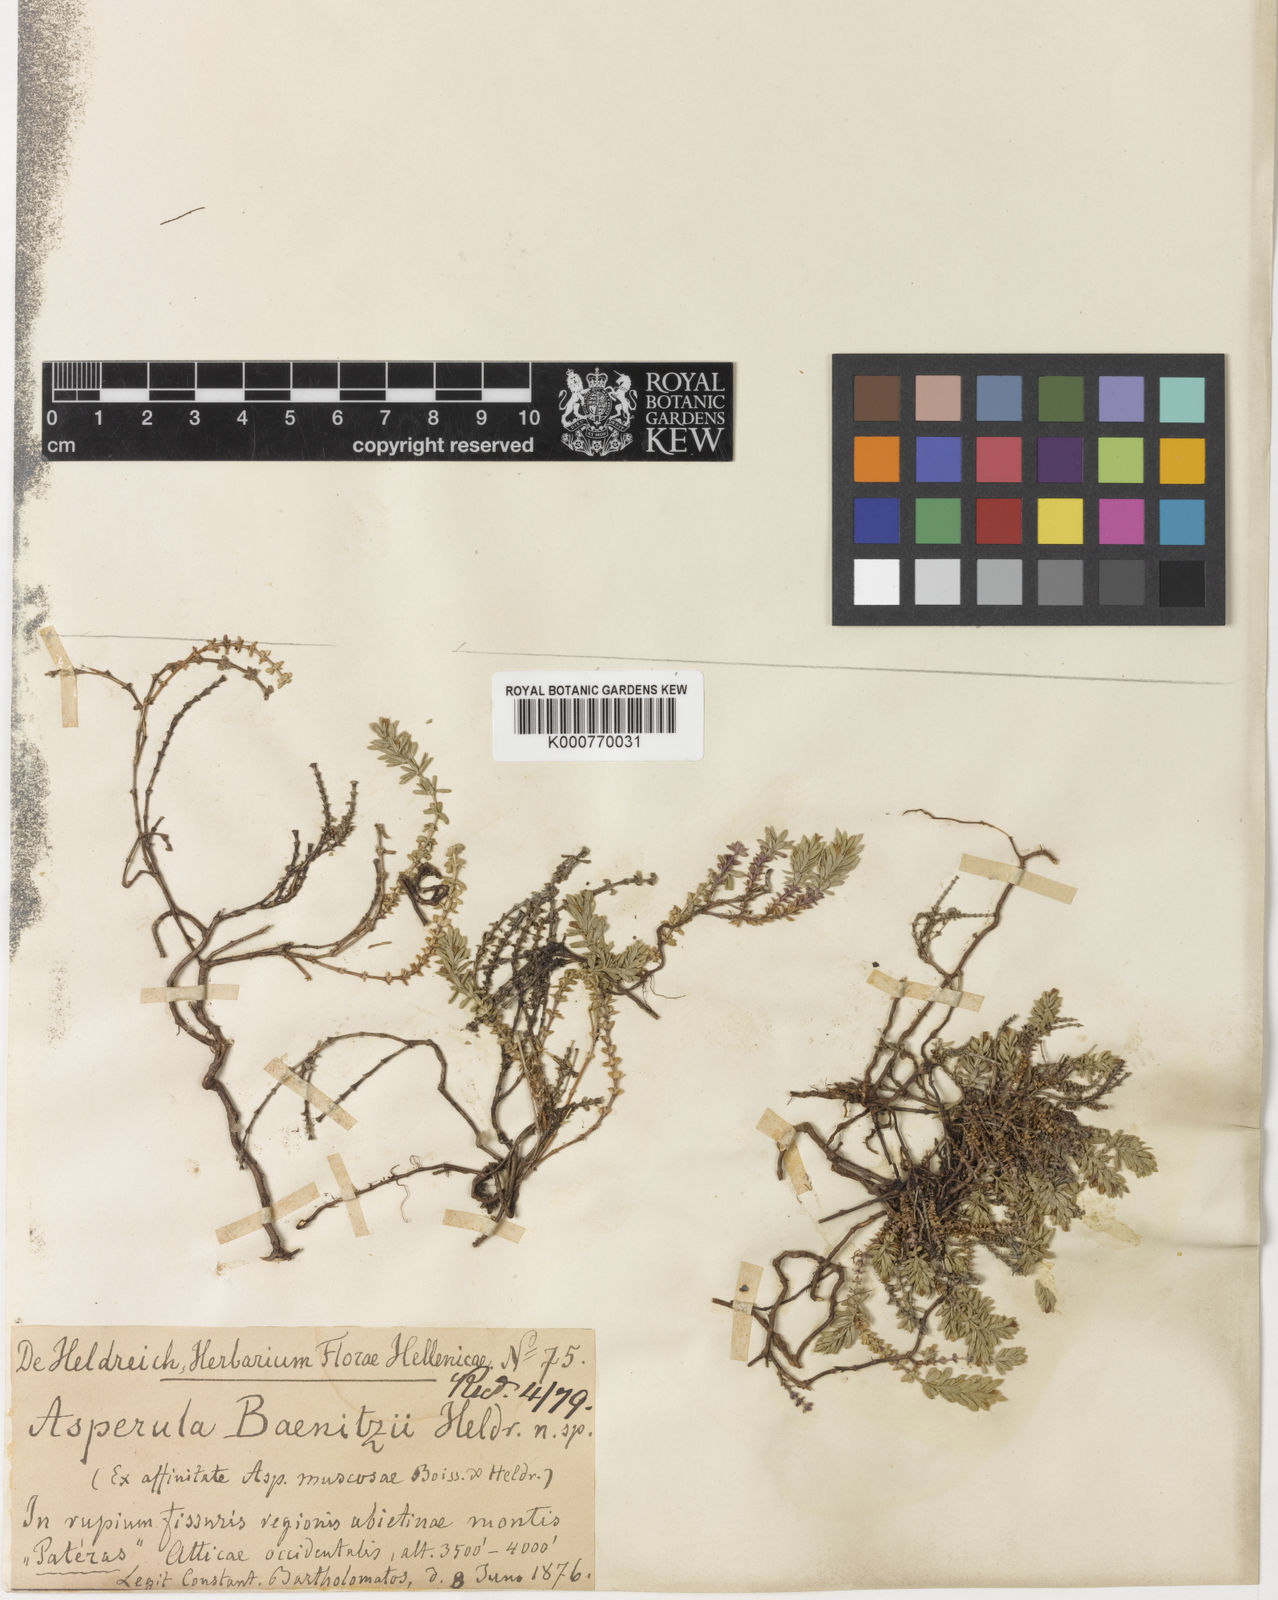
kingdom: Plantae
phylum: Tracheophyta
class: Magnoliopsida
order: Gentianales
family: Rubiaceae
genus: Thliphthisa
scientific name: Thliphthisa baenitzii
